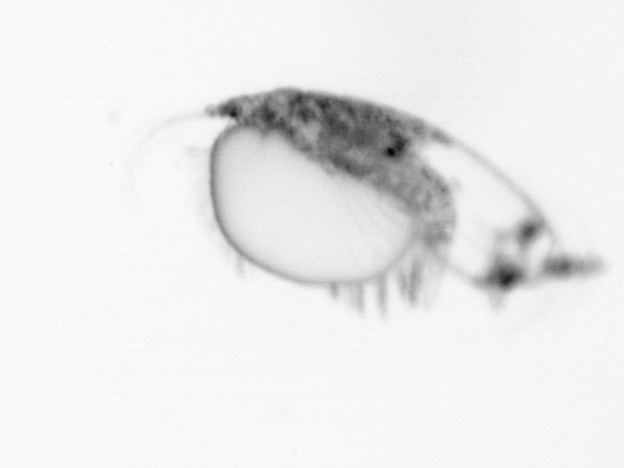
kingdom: Animalia
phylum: Arthropoda
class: Copepoda
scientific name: Copepoda
